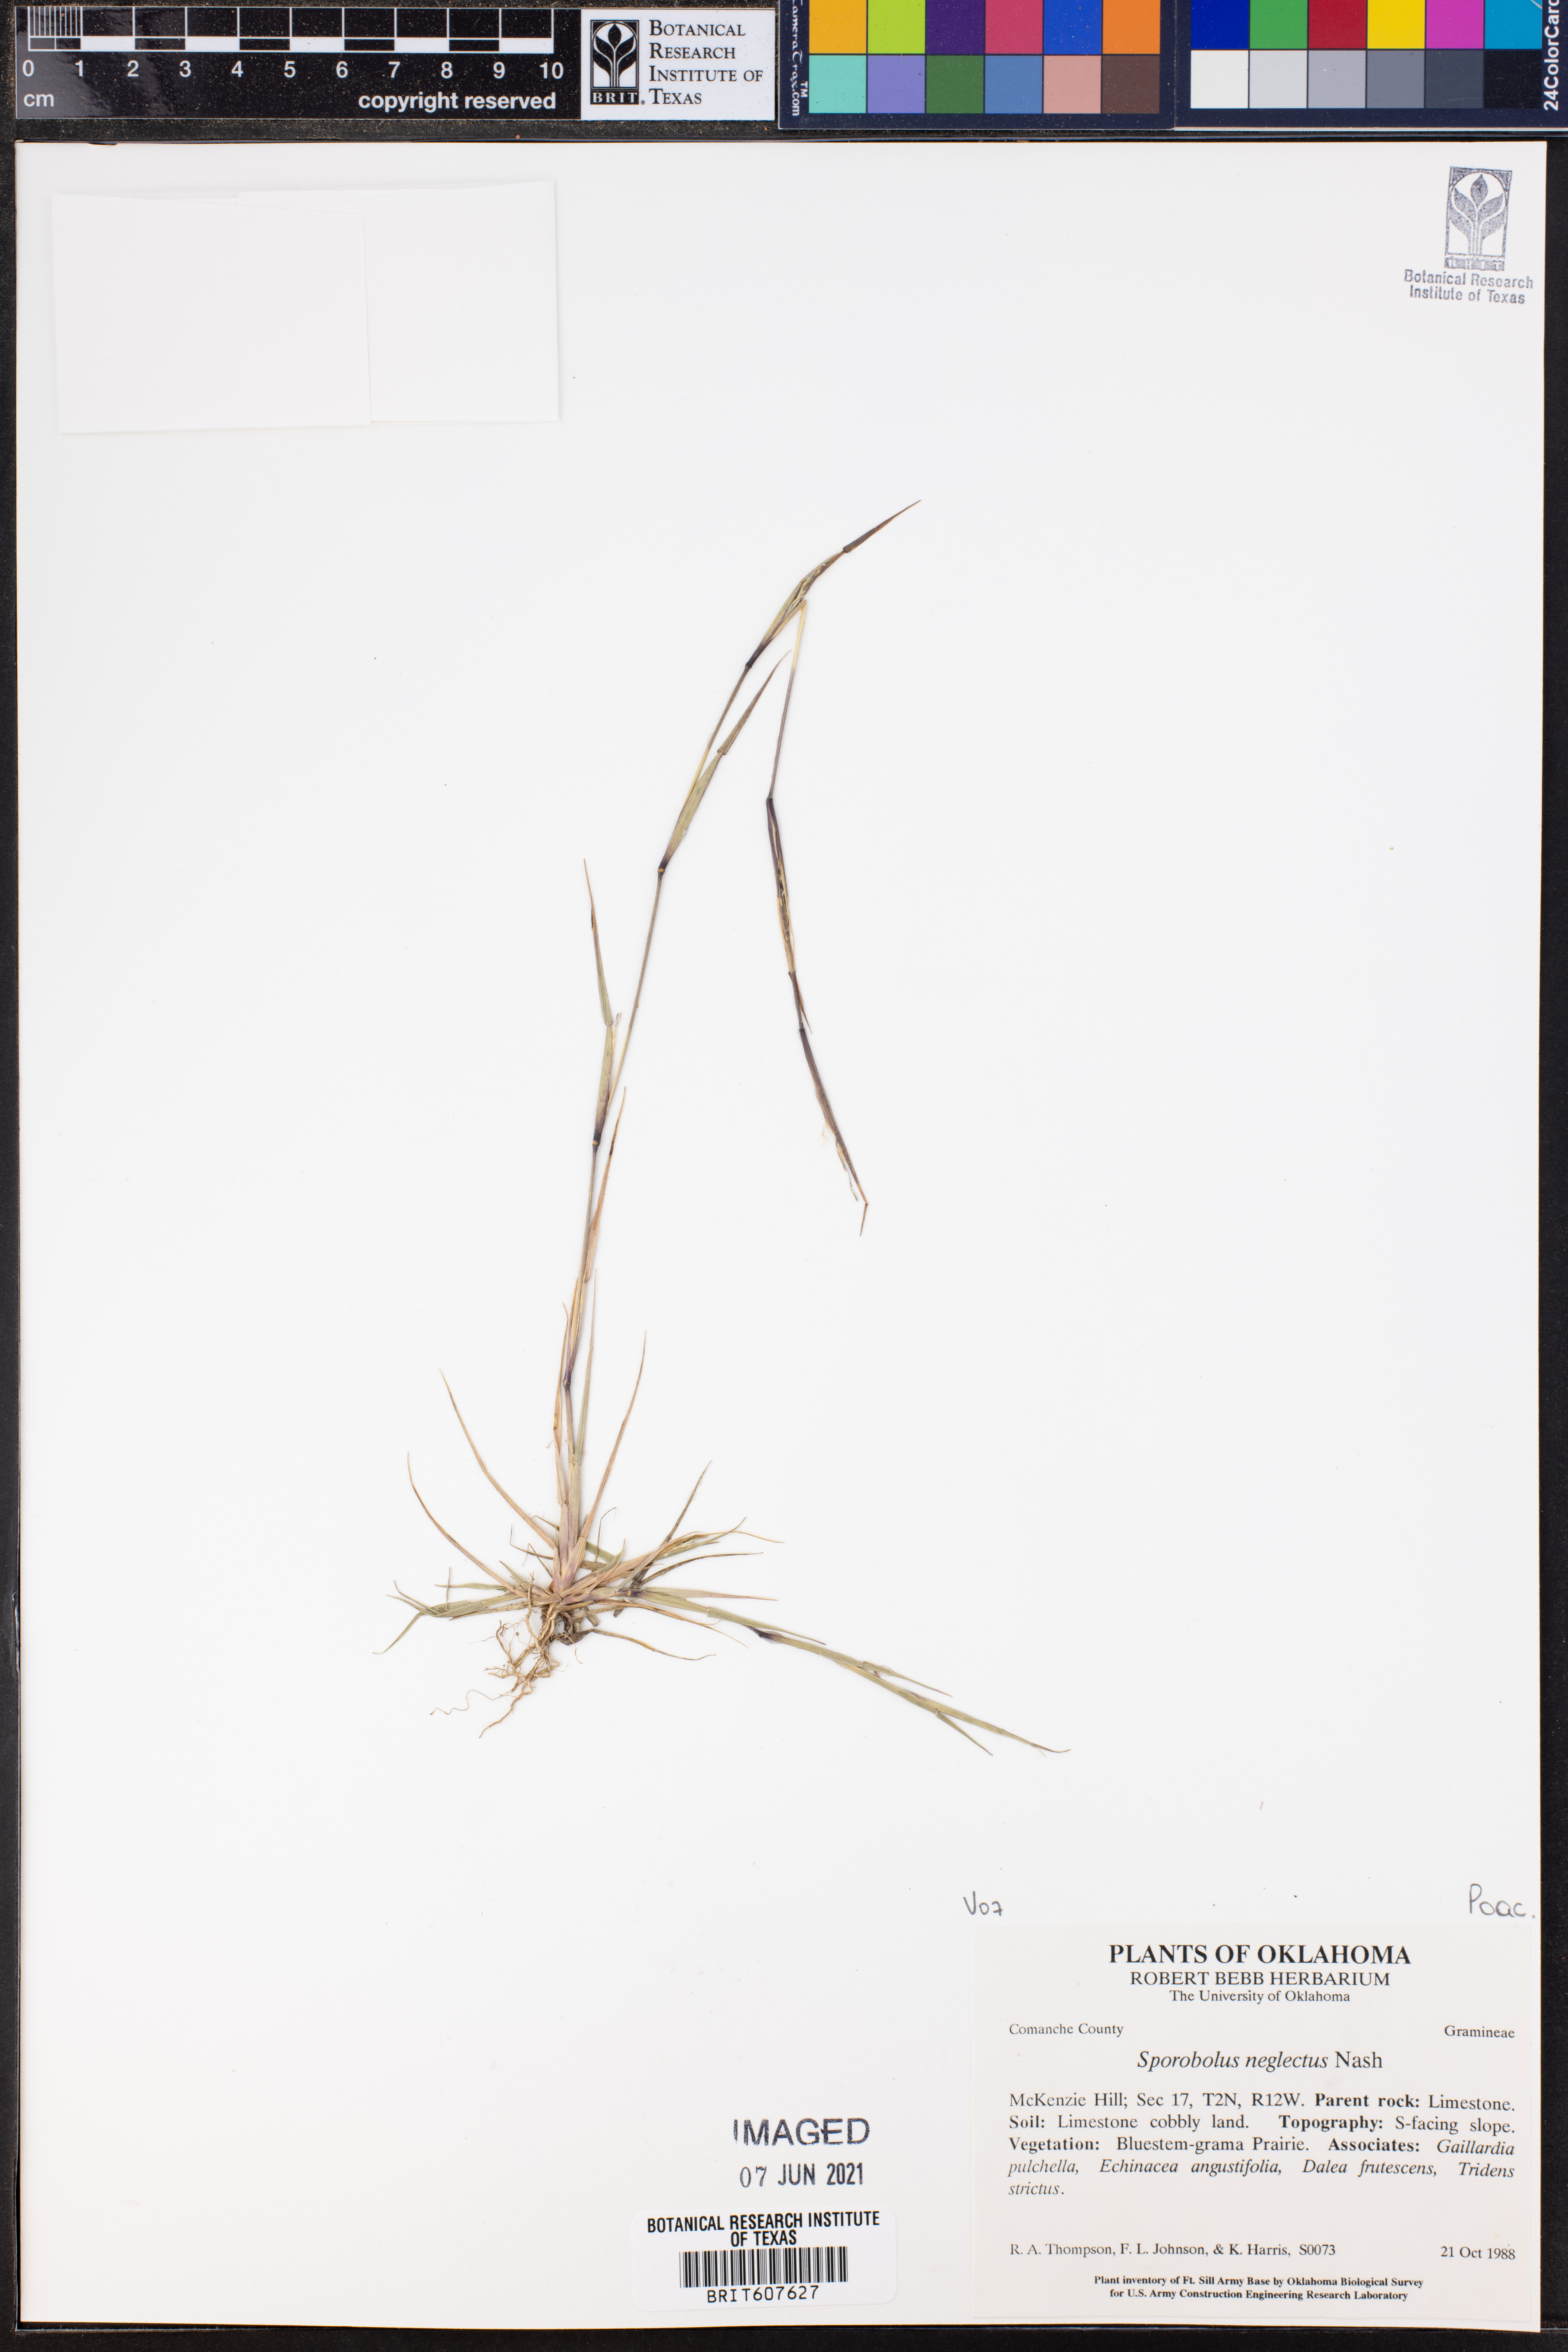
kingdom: Plantae
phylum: Tracheophyta
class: Liliopsida
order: Poales
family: Poaceae
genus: Sporobolus
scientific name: Sporobolus neglectus
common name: Annual dropseed
